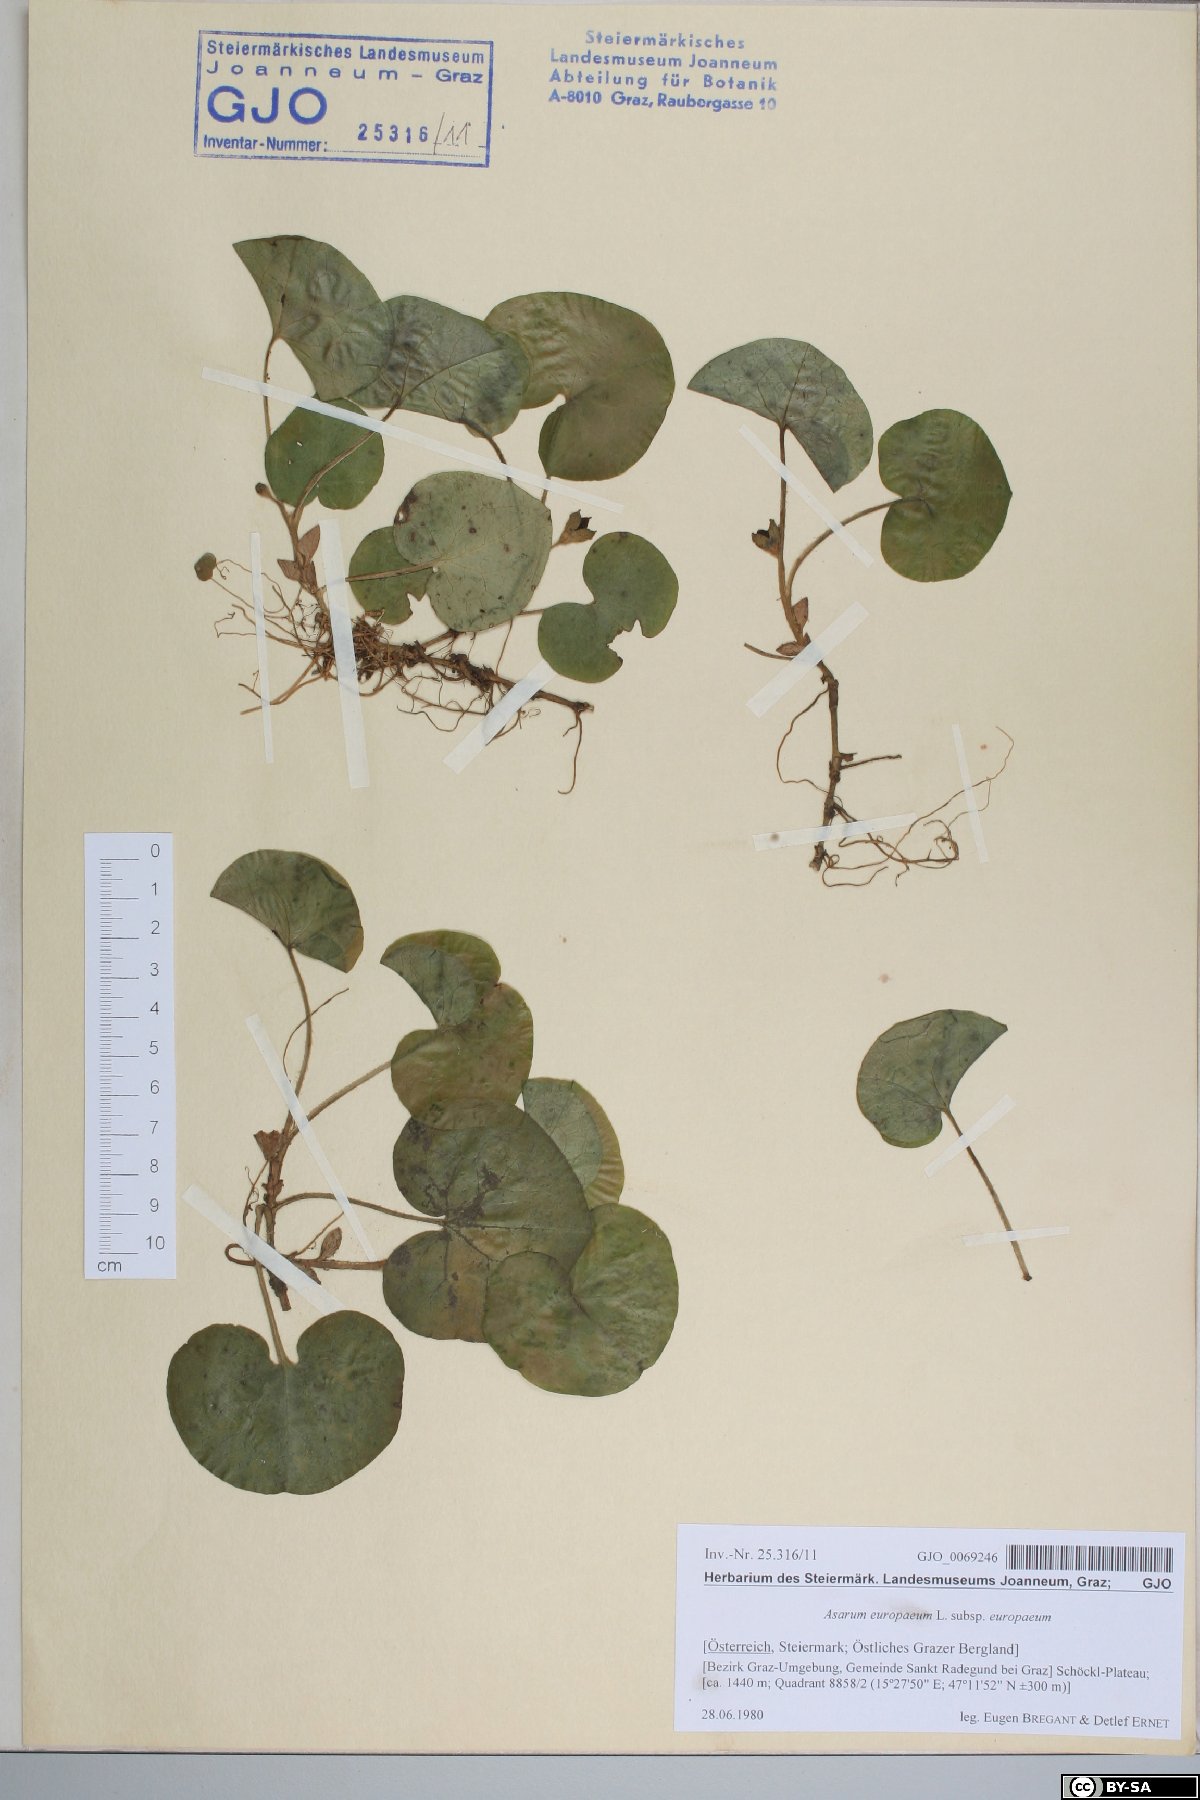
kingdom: Plantae
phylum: Tracheophyta
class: Magnoliopsida
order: Piperales
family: Aristolochiaceae
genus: Asarum
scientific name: Asarum europaeum
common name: Asarabacca
